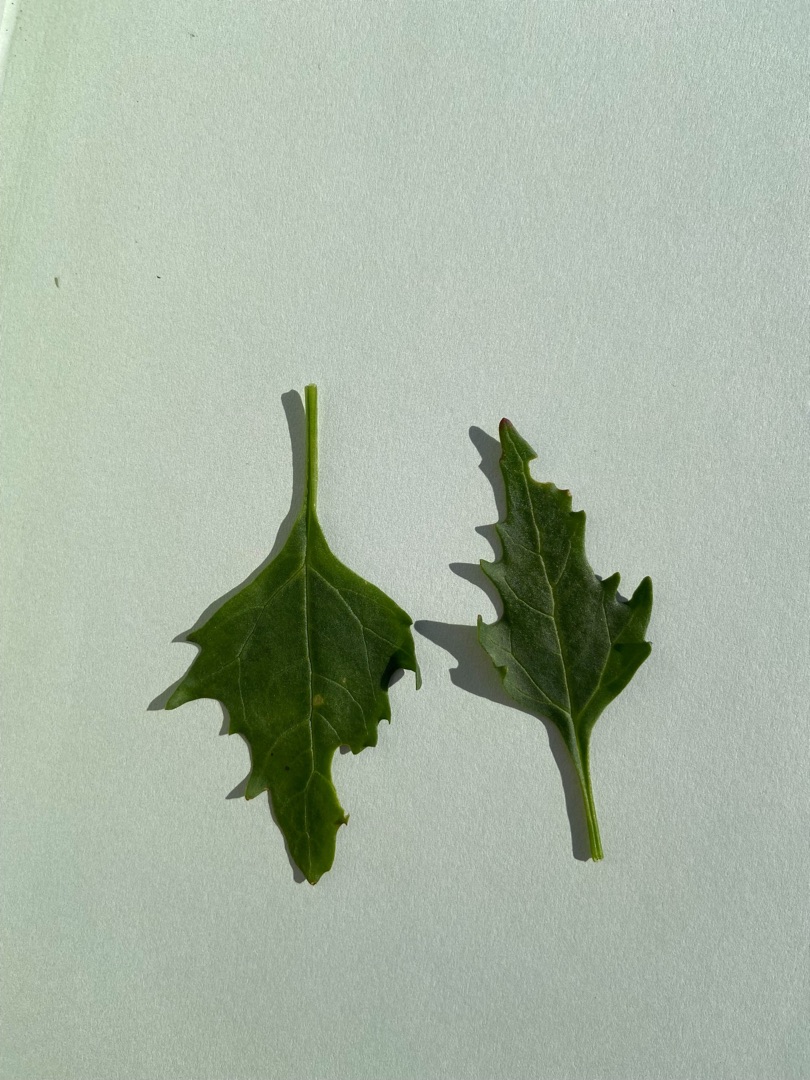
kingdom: Plantae
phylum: Tracheophyta
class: Magnoliopsida
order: Caryophyllales
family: Amaranthaceae
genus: Oxybasis
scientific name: Oxybasis rubra
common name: Rød gåsefod
